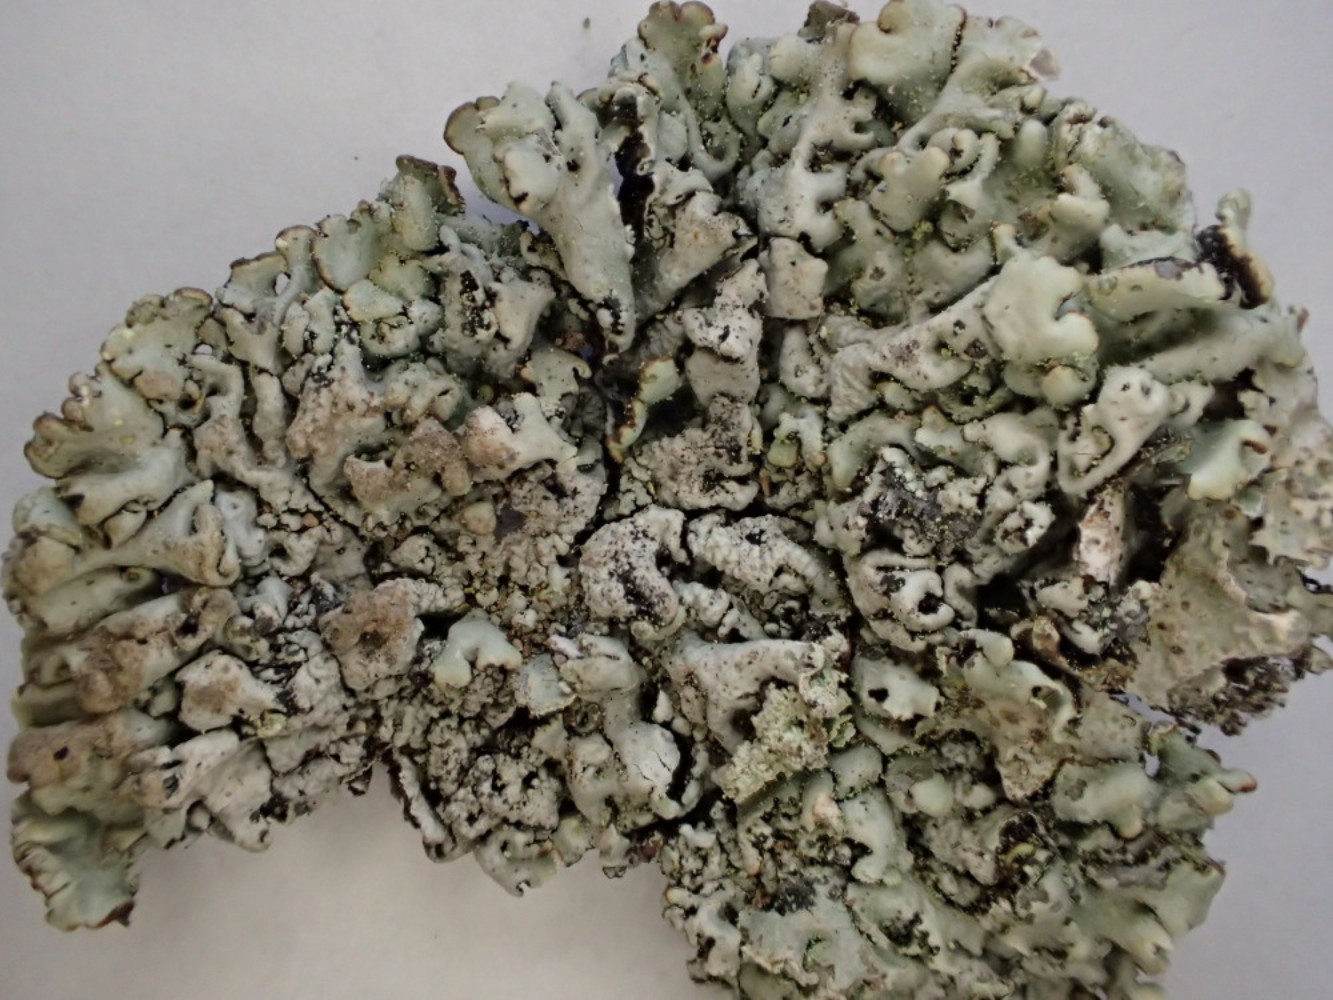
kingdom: Fungi
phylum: Ascomycota
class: Lecanoromycetes
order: Lecanorales
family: Parmeliaceae
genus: Hypogymnia
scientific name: Hypogymnia physodes
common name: almindelig kvistlav
